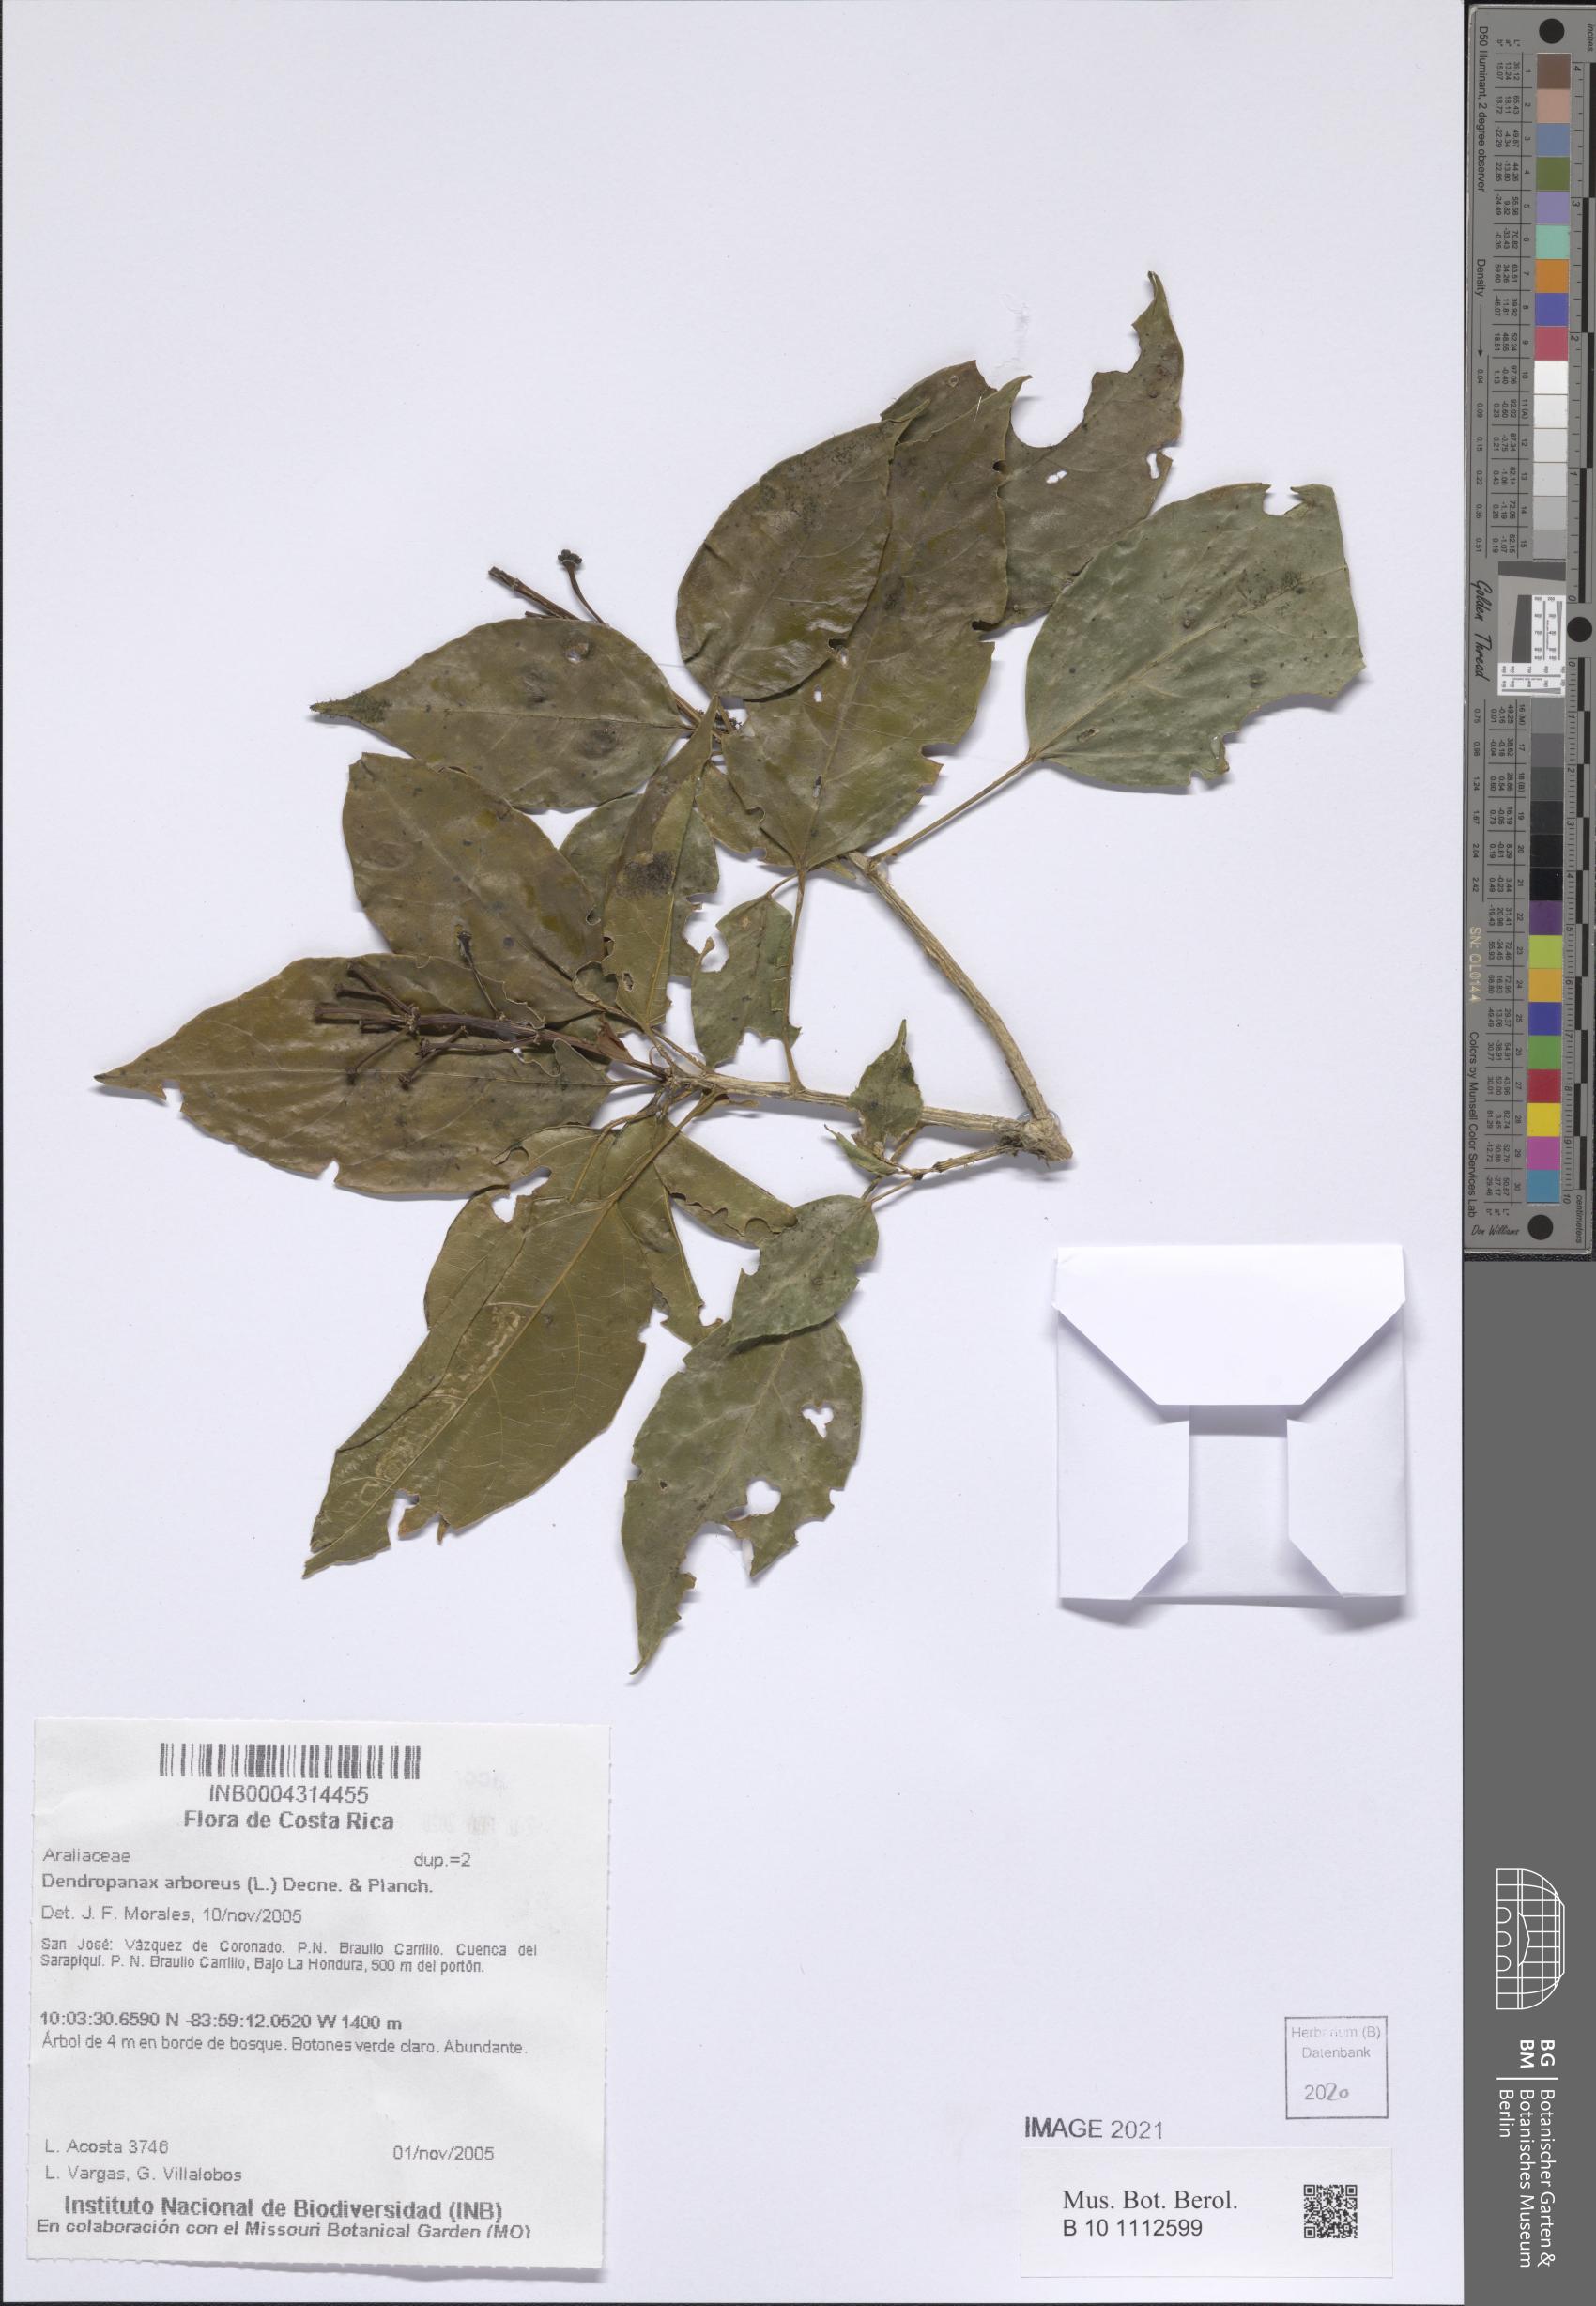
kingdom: Plantae
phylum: Tracheophyta
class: Magnoliopsida
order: Apiales
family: Araliaceae
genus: Dendropanax
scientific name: Dendropanax arboreus
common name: Potato-wood
